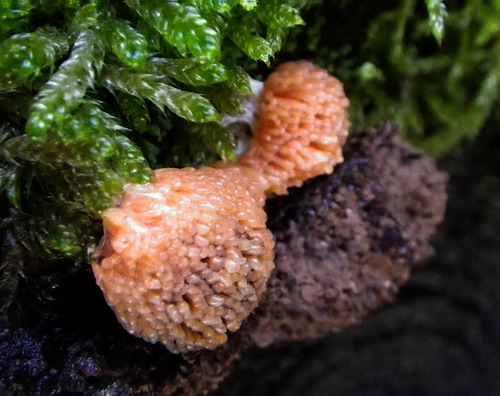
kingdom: Protozoa
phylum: Mycetozoa
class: Myxomycetes
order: Cribrariales
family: Tubiferaceae
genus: Tubifera
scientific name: Tubifera ferruginosa
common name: kanel-støvrør
